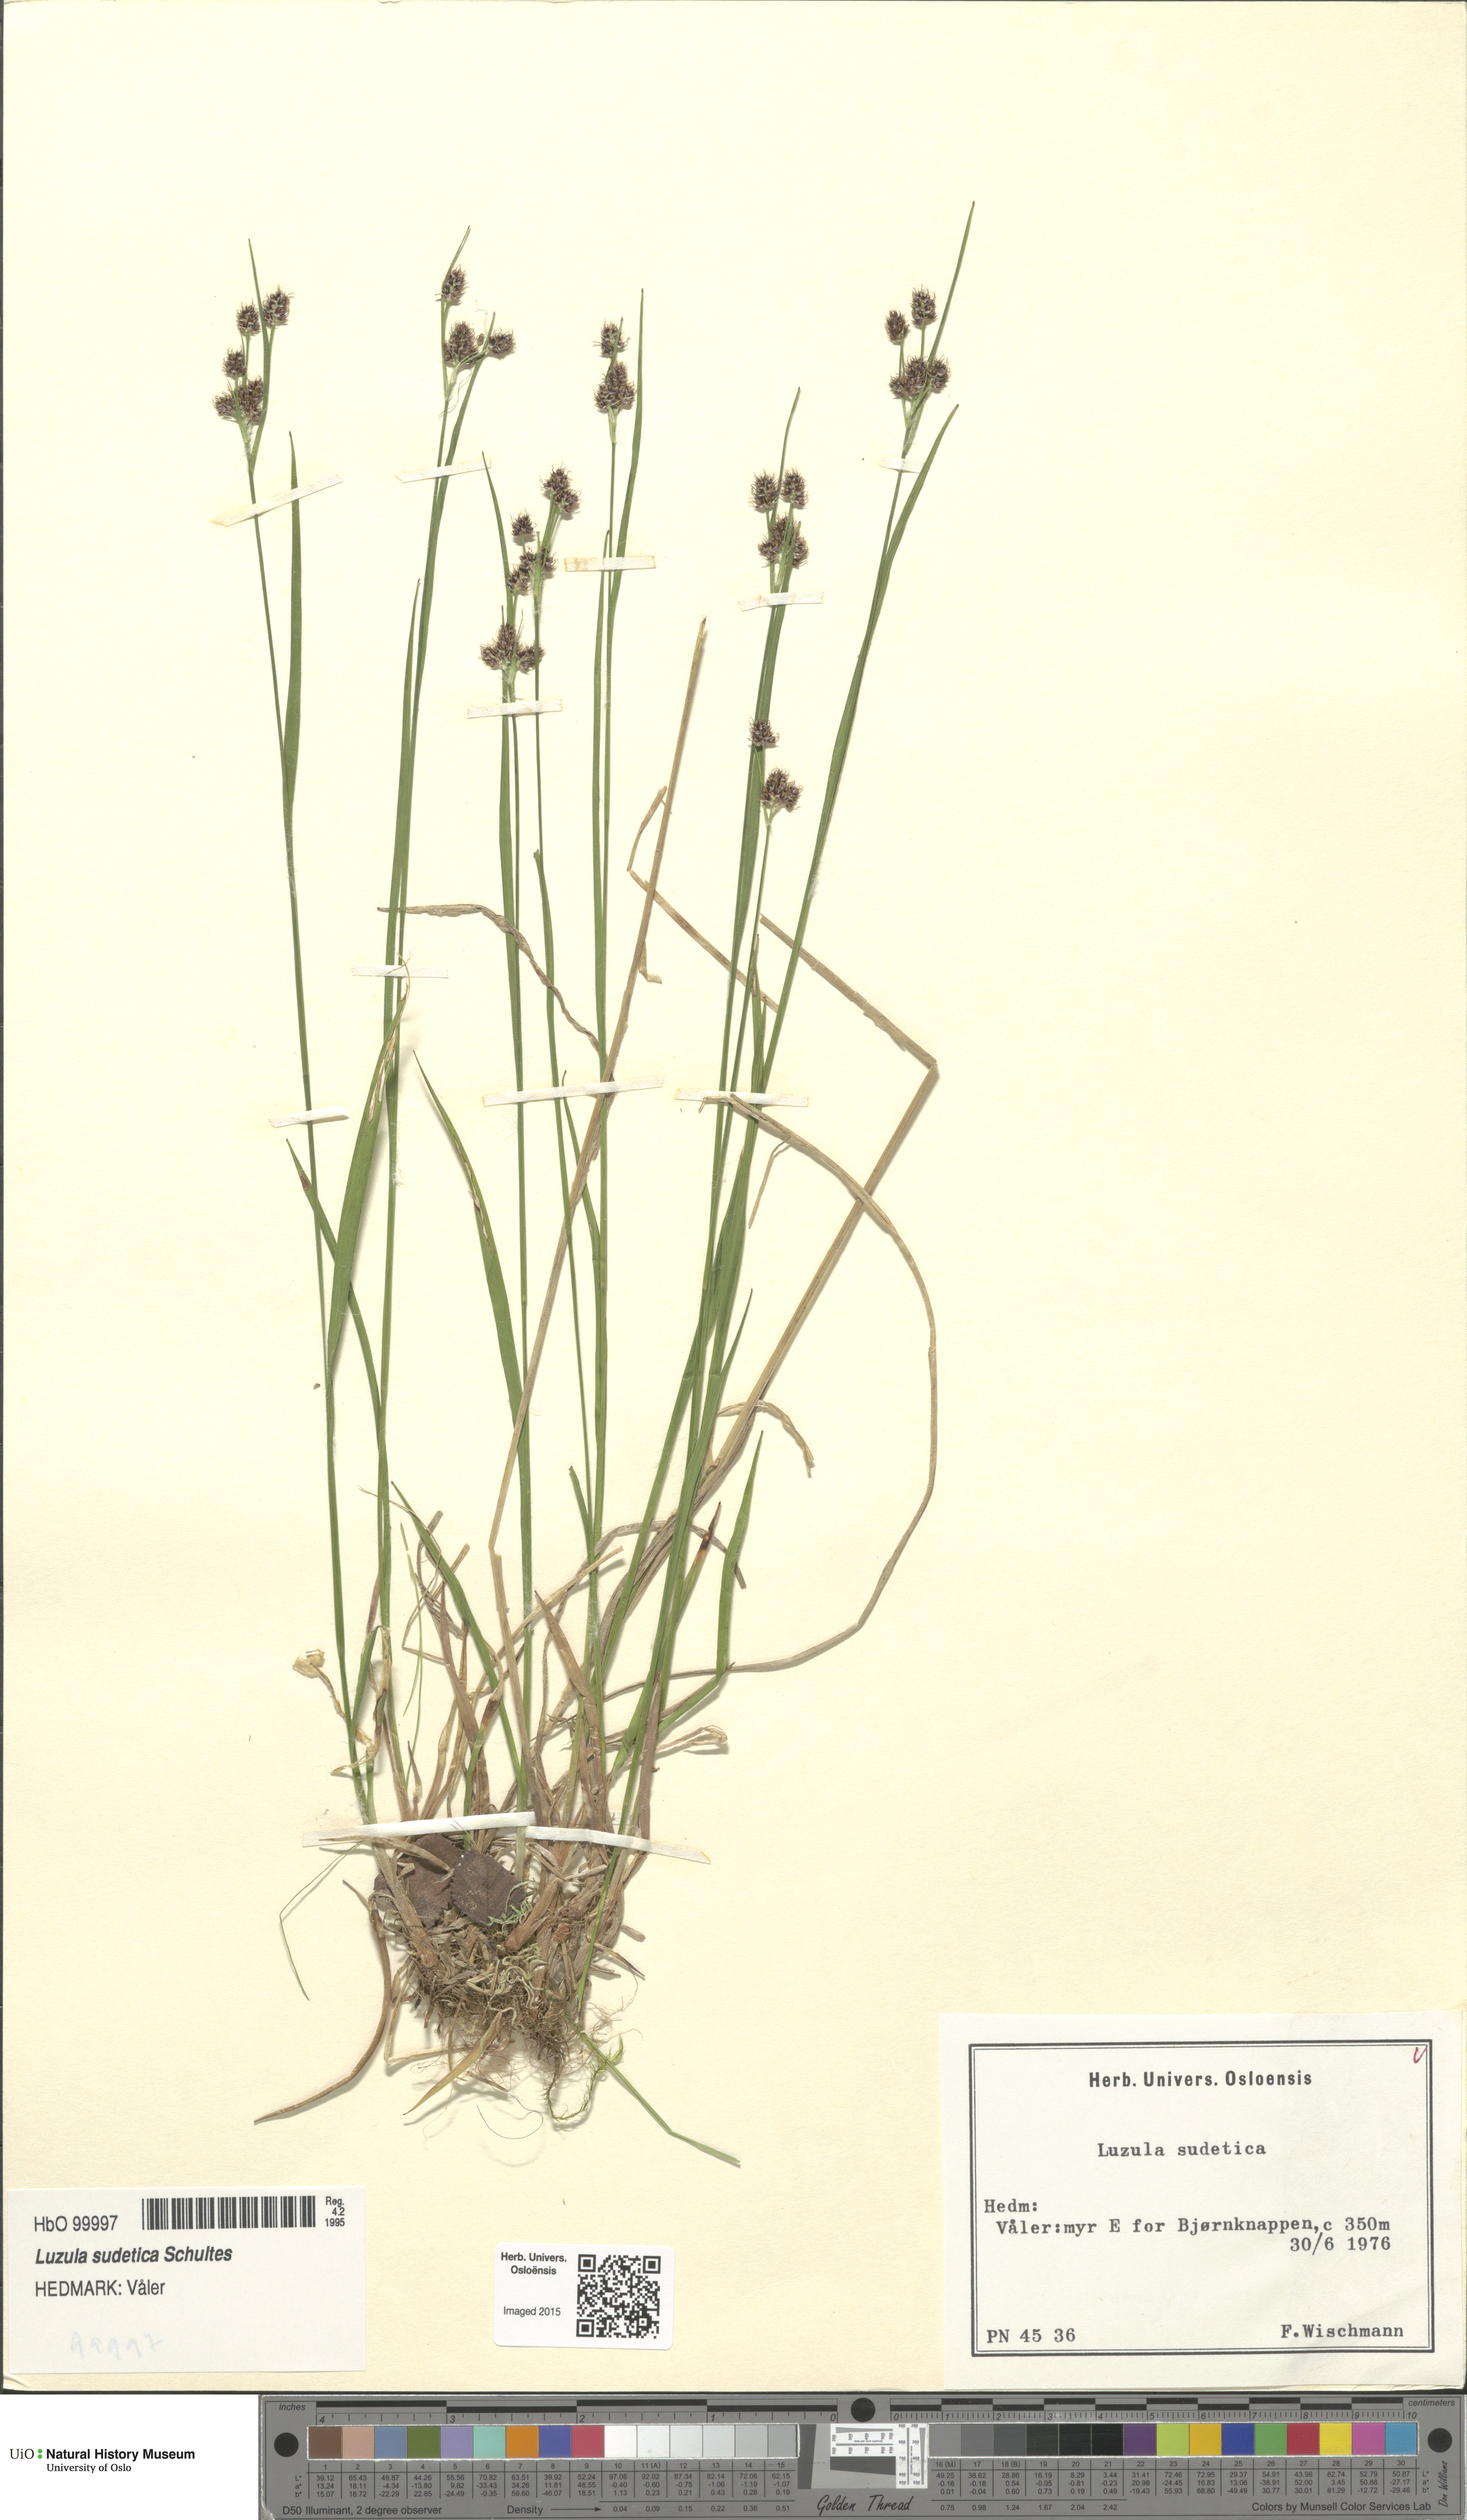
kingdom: Plantae
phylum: Tracheophyta
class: Liliopsida
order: Poales
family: Juncaceae
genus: Luzula
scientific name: Luzula sudetica
